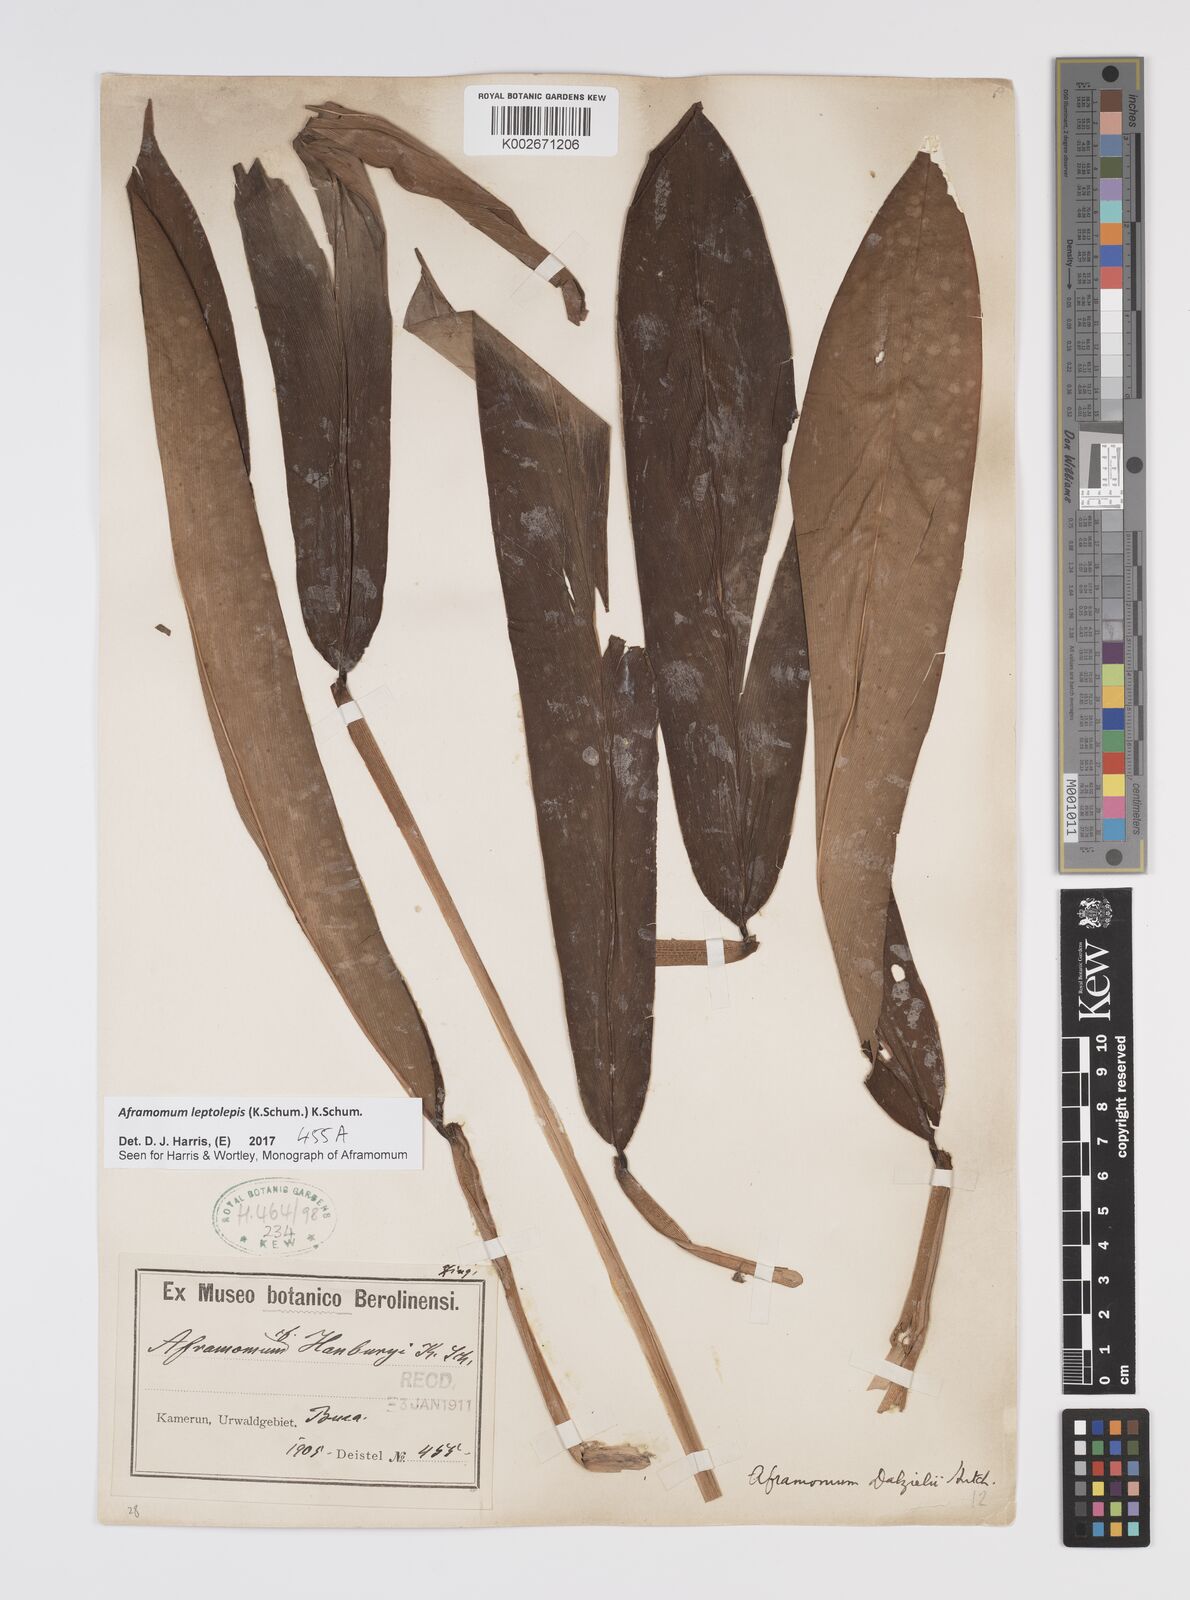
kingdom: Plantae
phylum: Tracheophyta
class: Liliopsida
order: Zingiberales
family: Zingiberaceae
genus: Aframomum
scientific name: Aframomum leptolepis
